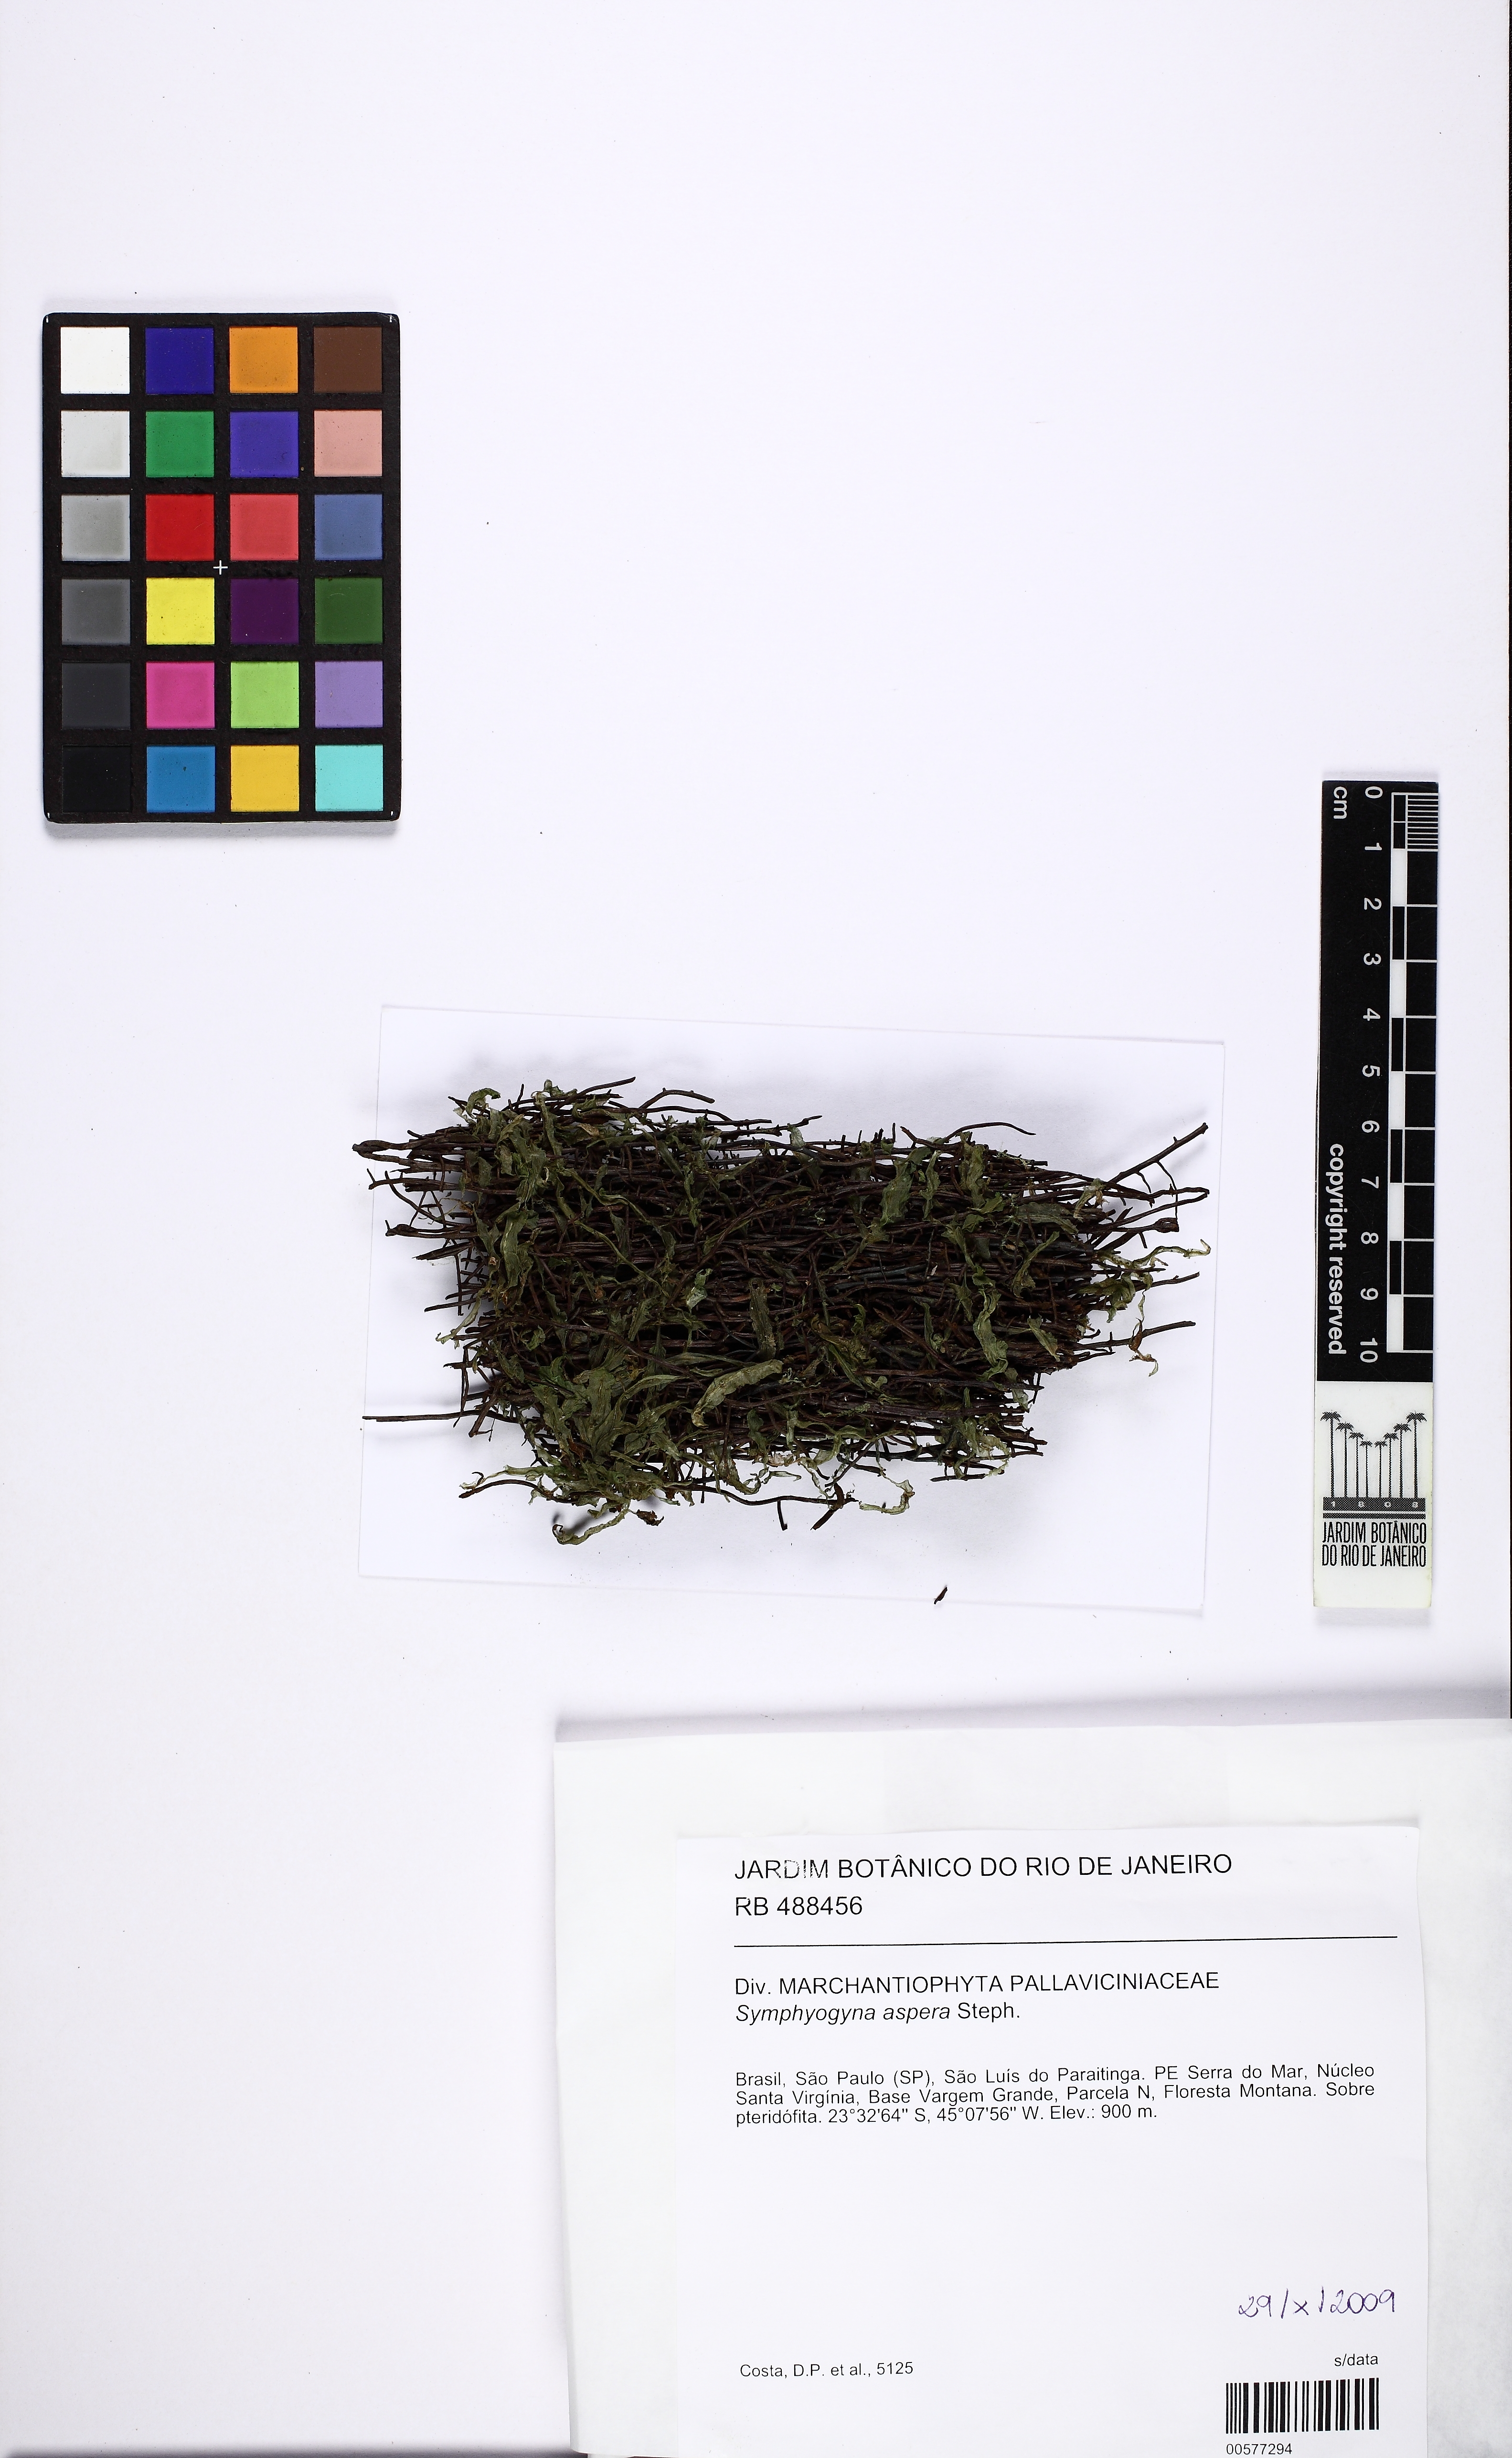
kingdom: Plantae
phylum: Marchantiophyta
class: Jungermanniopsida
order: Pallaviciniales
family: Pallaviciniaceae
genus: Symphyogyna
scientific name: Symphyogyna aspera
